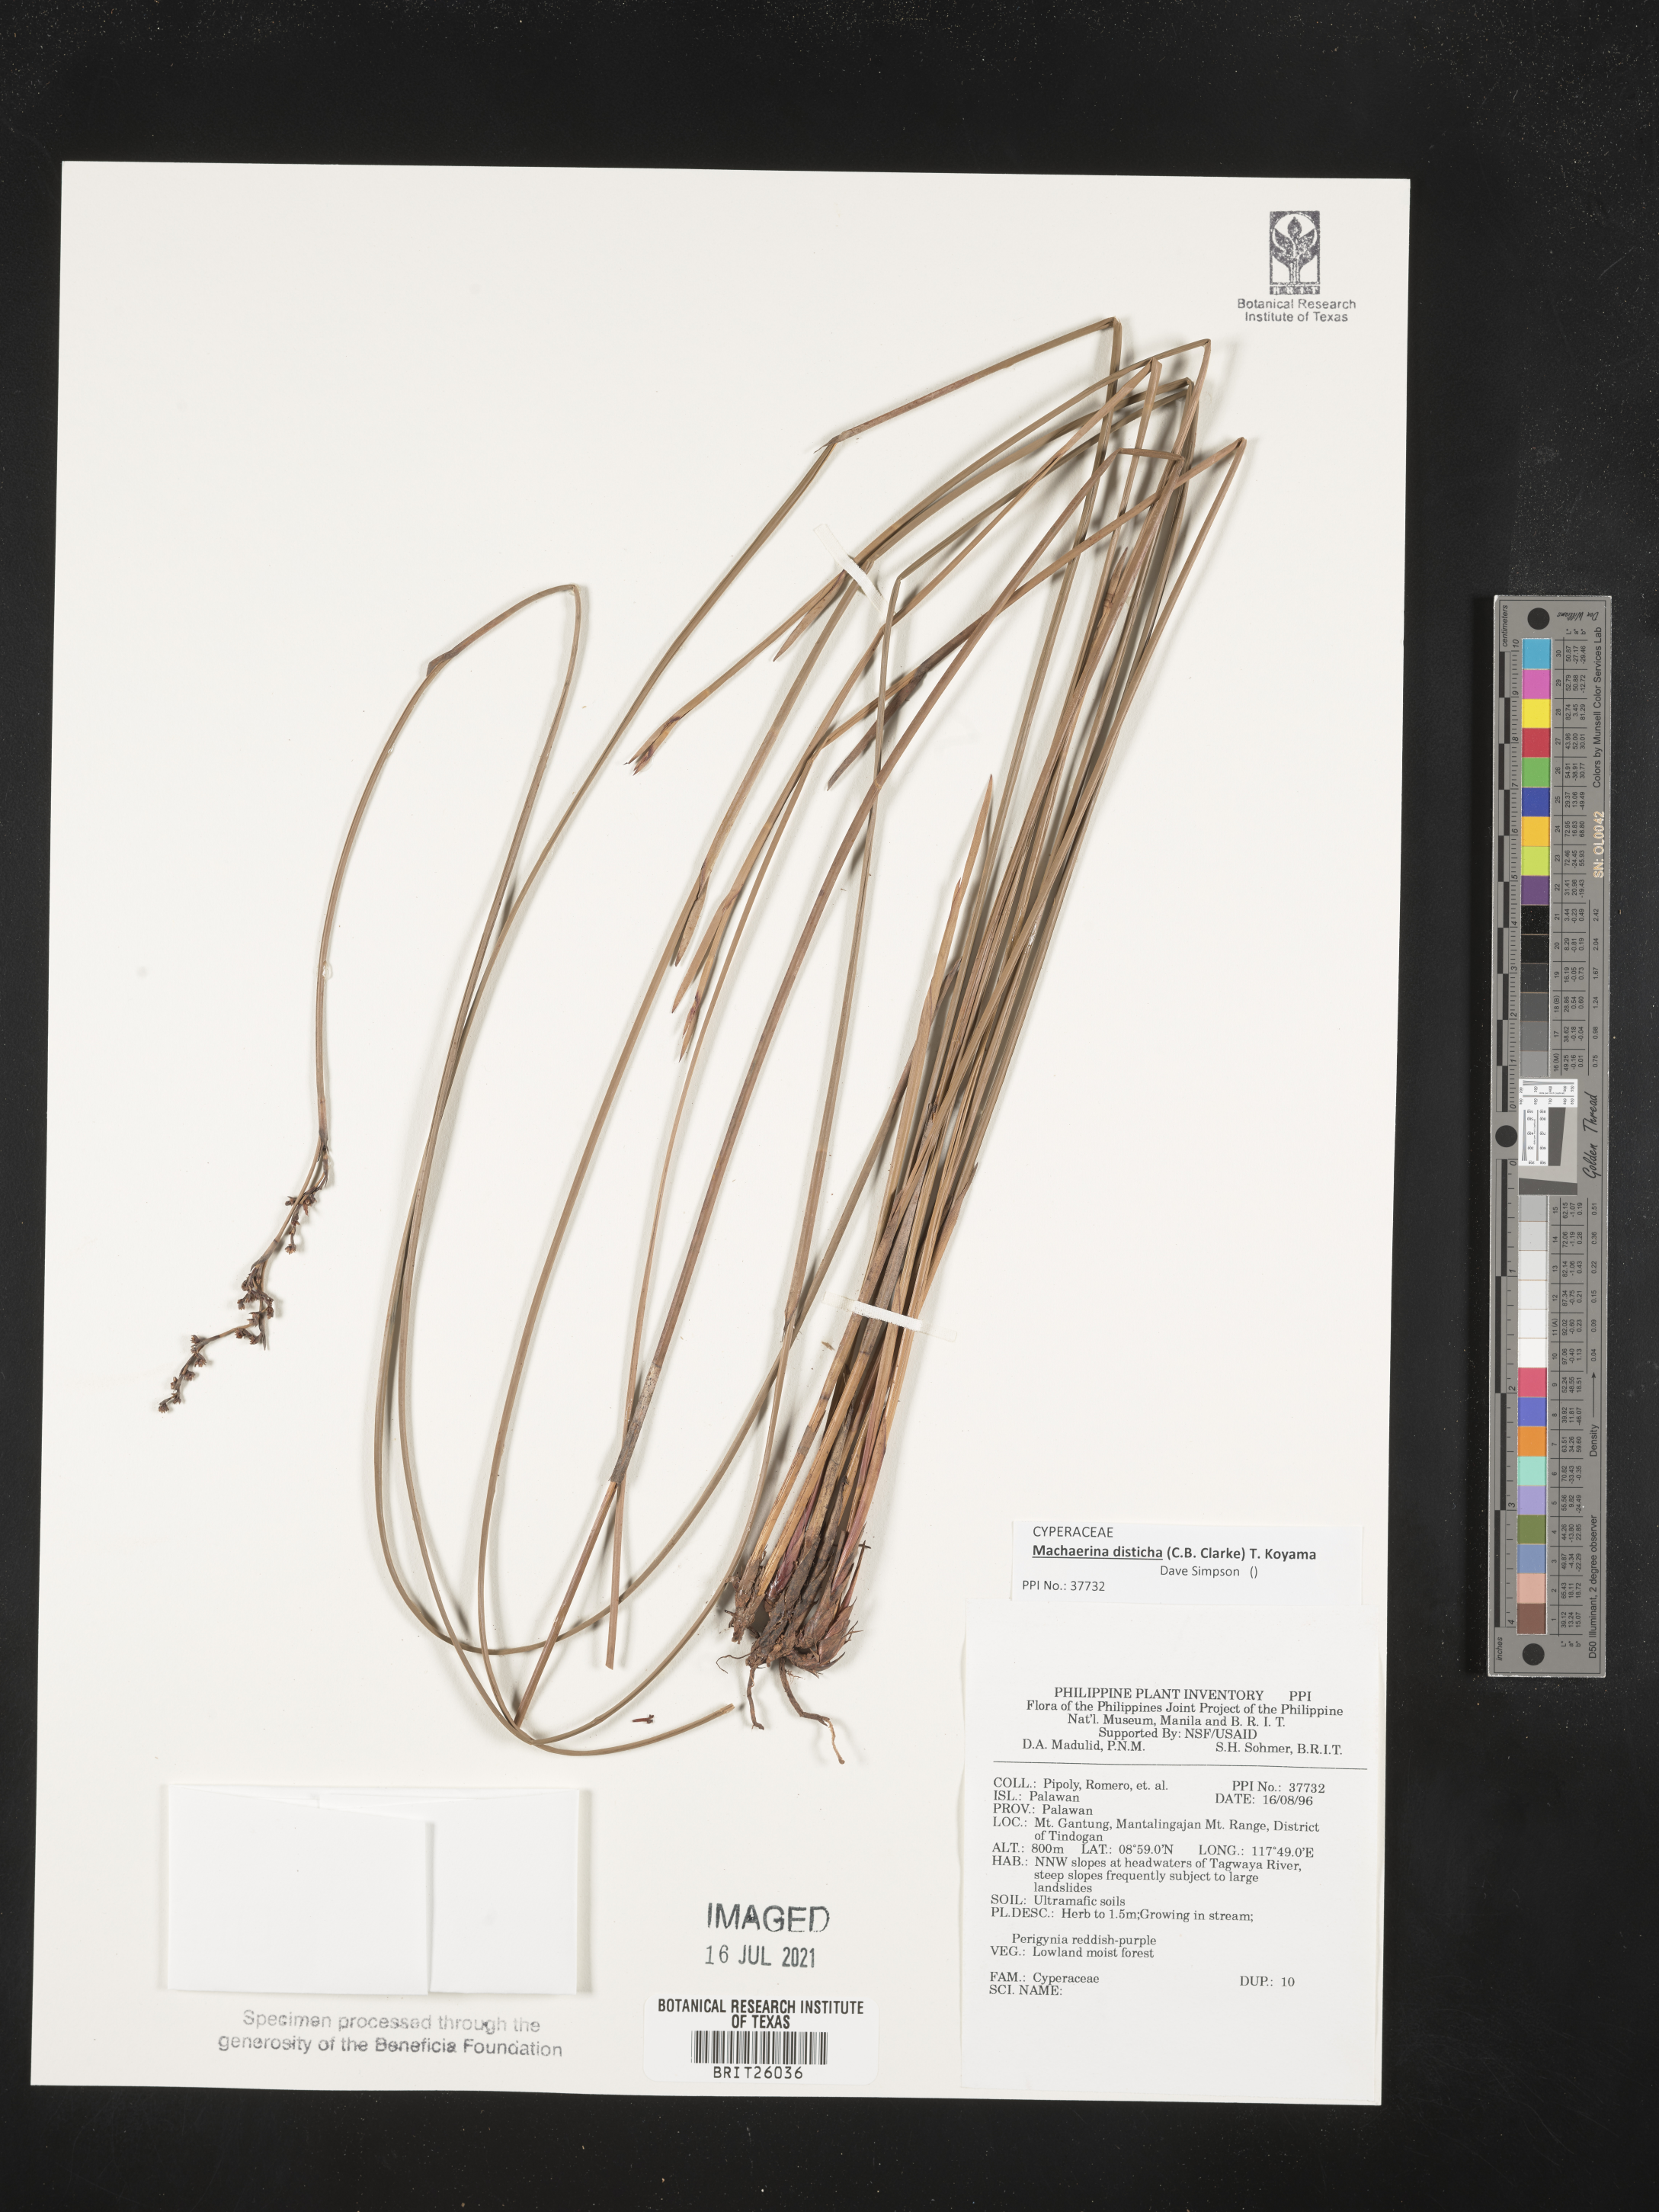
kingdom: Plantae
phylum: Tracheophyta
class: Liliopsida
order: Poales
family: Cyperaceae
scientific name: Cyperaceae
